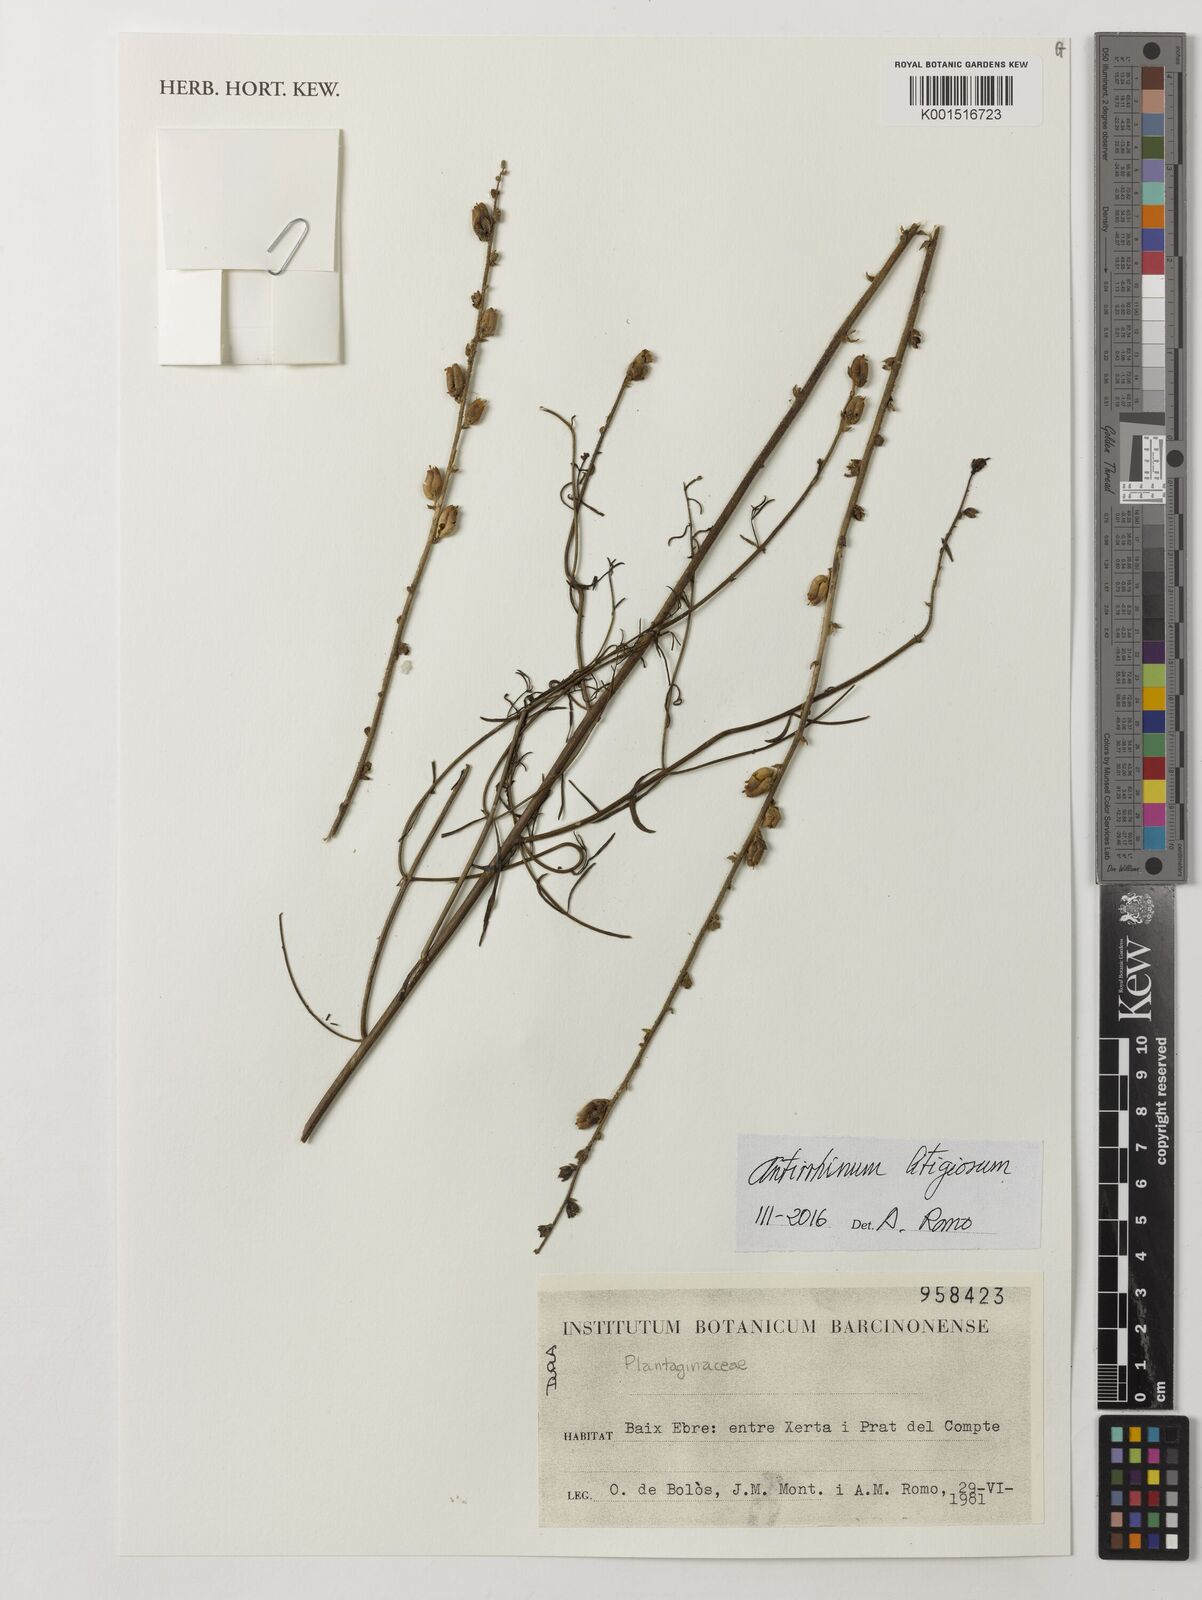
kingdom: Plantae
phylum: Tracheophyta
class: Magnoliopsida
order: Lamiales
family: Plantaginaceae
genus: Antirrhinum
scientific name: Antirrhinum litigiosum
